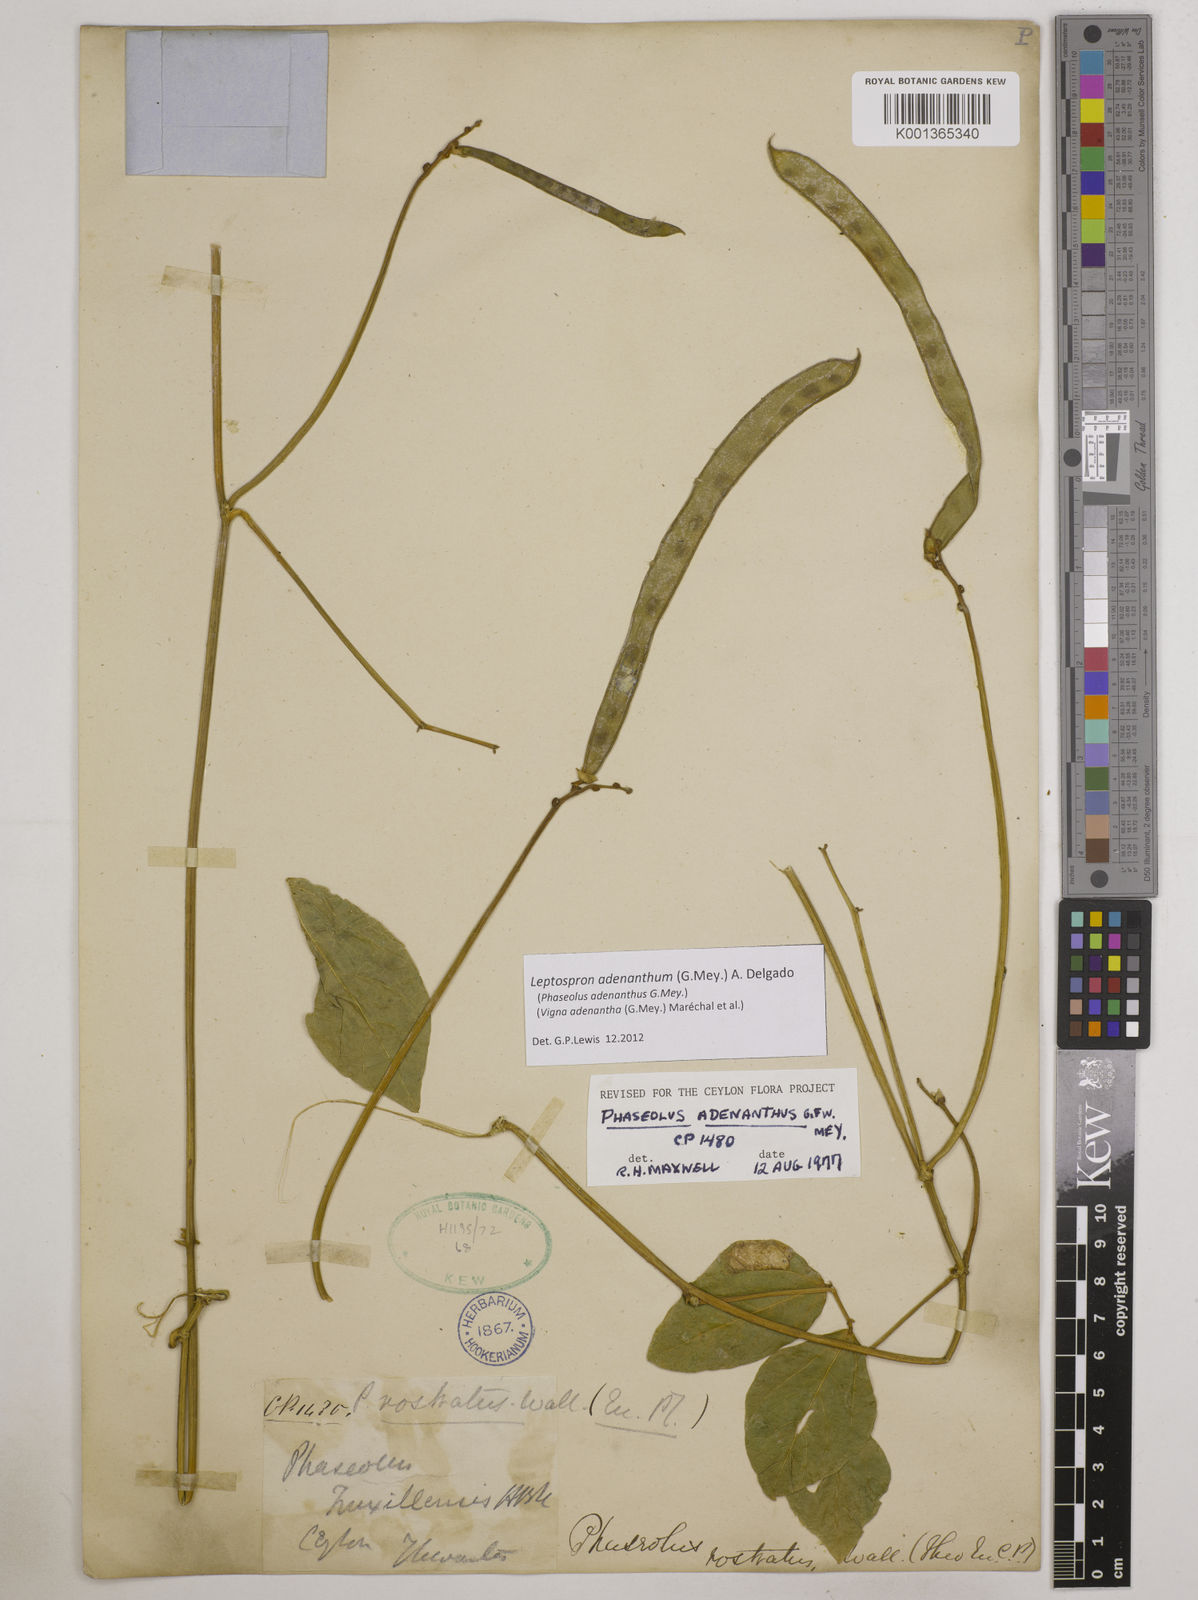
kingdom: Plantae
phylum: Tracheophyta
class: Magnoliopsida
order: Fabales
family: Fabaceae
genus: Leptospron
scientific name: Leptospron adenanthum
